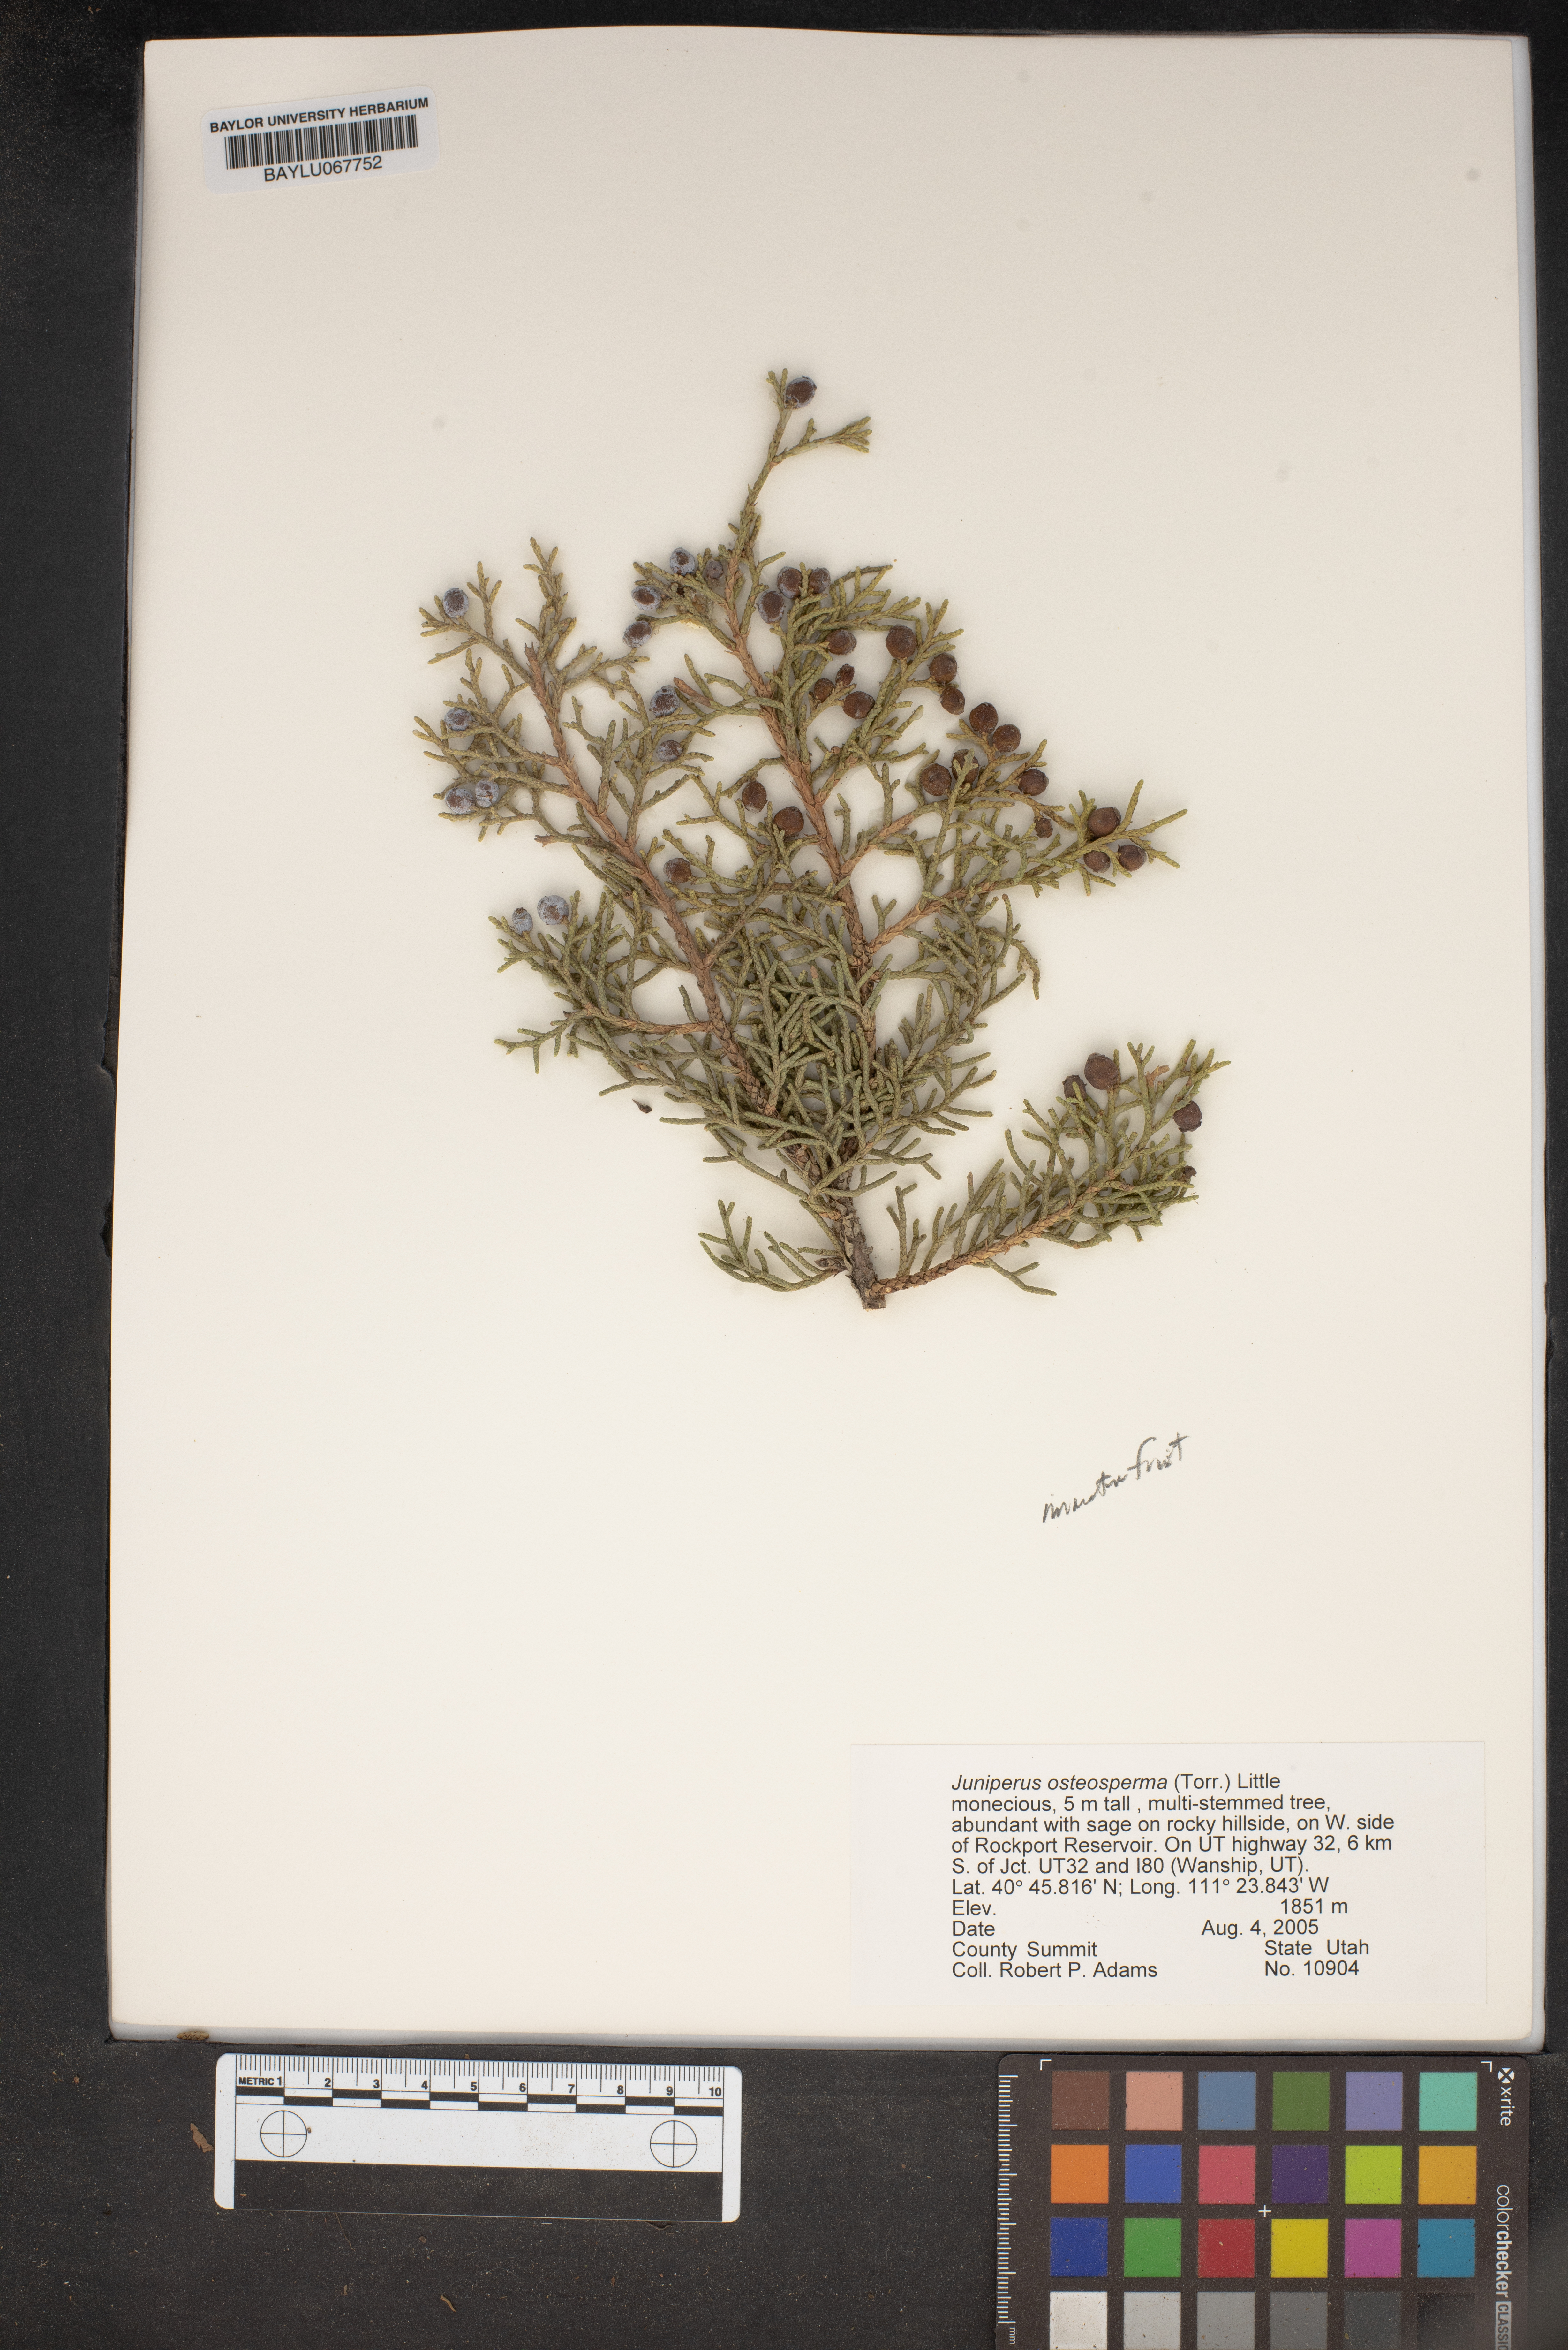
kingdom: Plantae
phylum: Tracheophyta
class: Pinopsida
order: Pinales
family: Cupressaceae
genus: Juniperus
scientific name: Juniperus osteosperma
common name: Utah juniper
